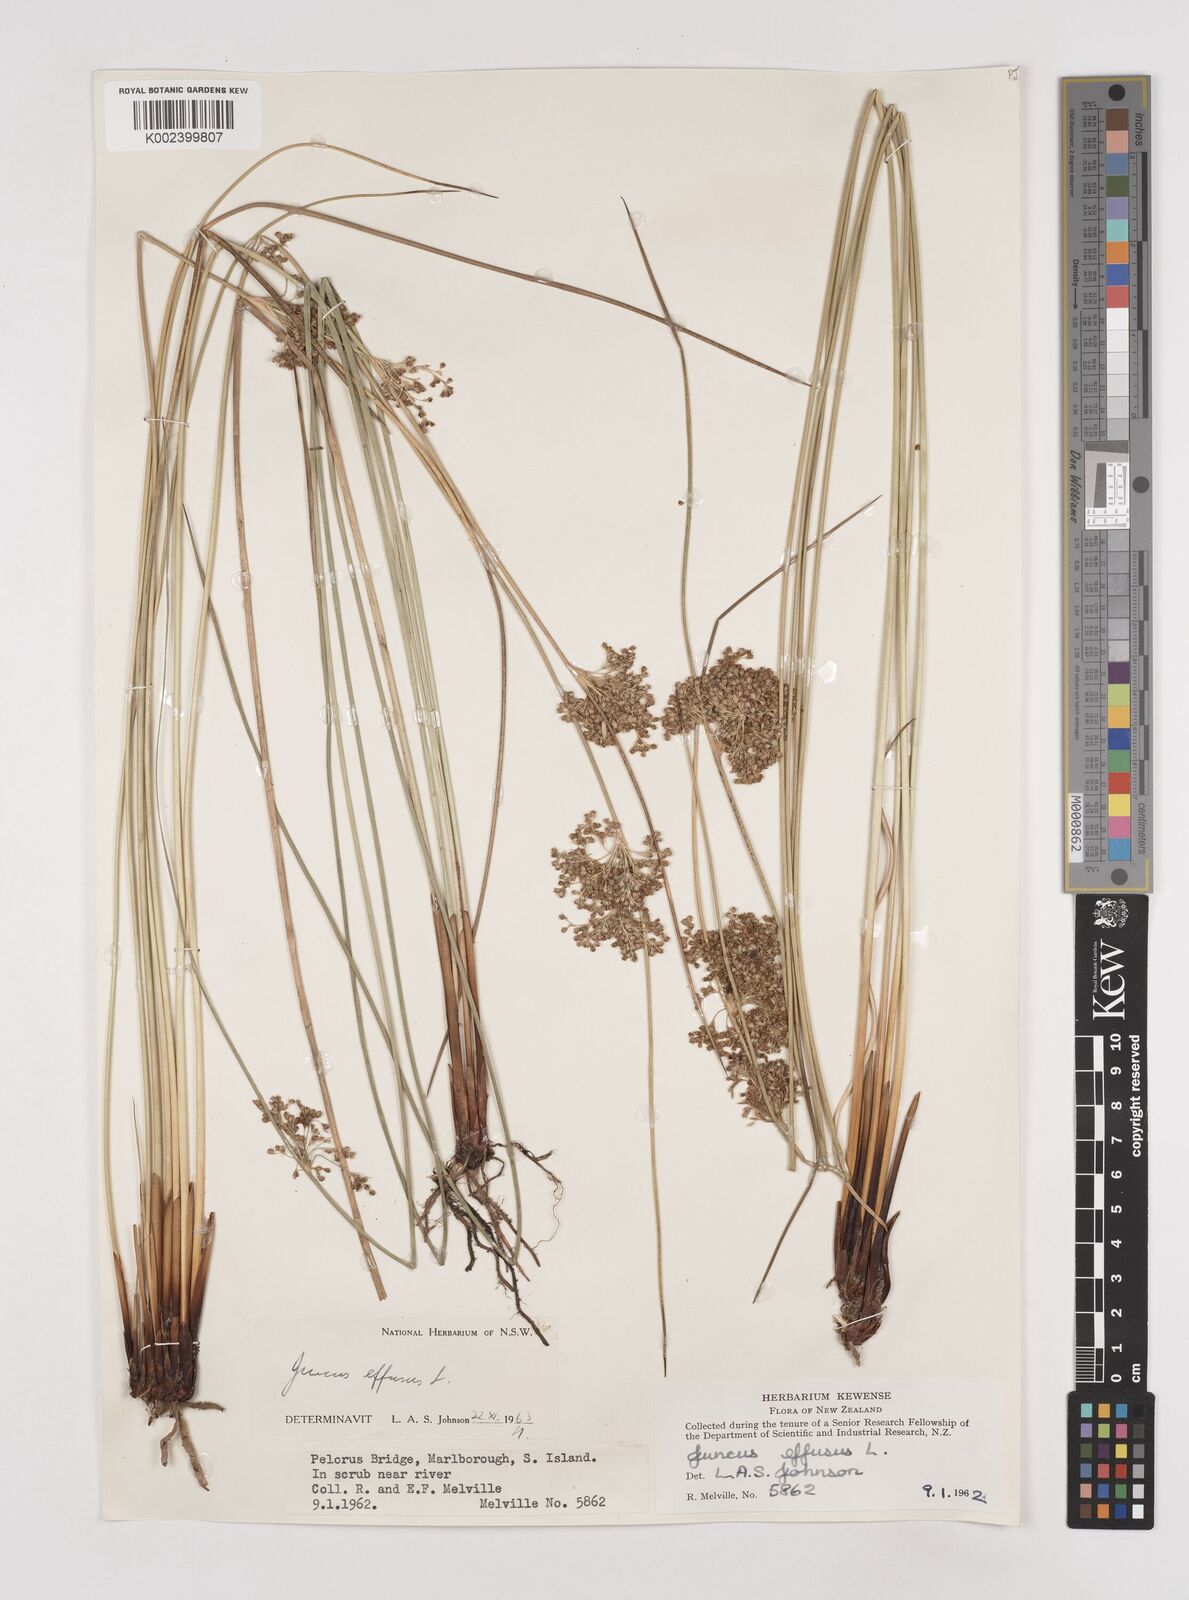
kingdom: Plantae
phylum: Tracheophyta
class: Liliopsida
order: Poales
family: Juncaceae
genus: Juncus
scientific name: Juncus effusus
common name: Soft rush
